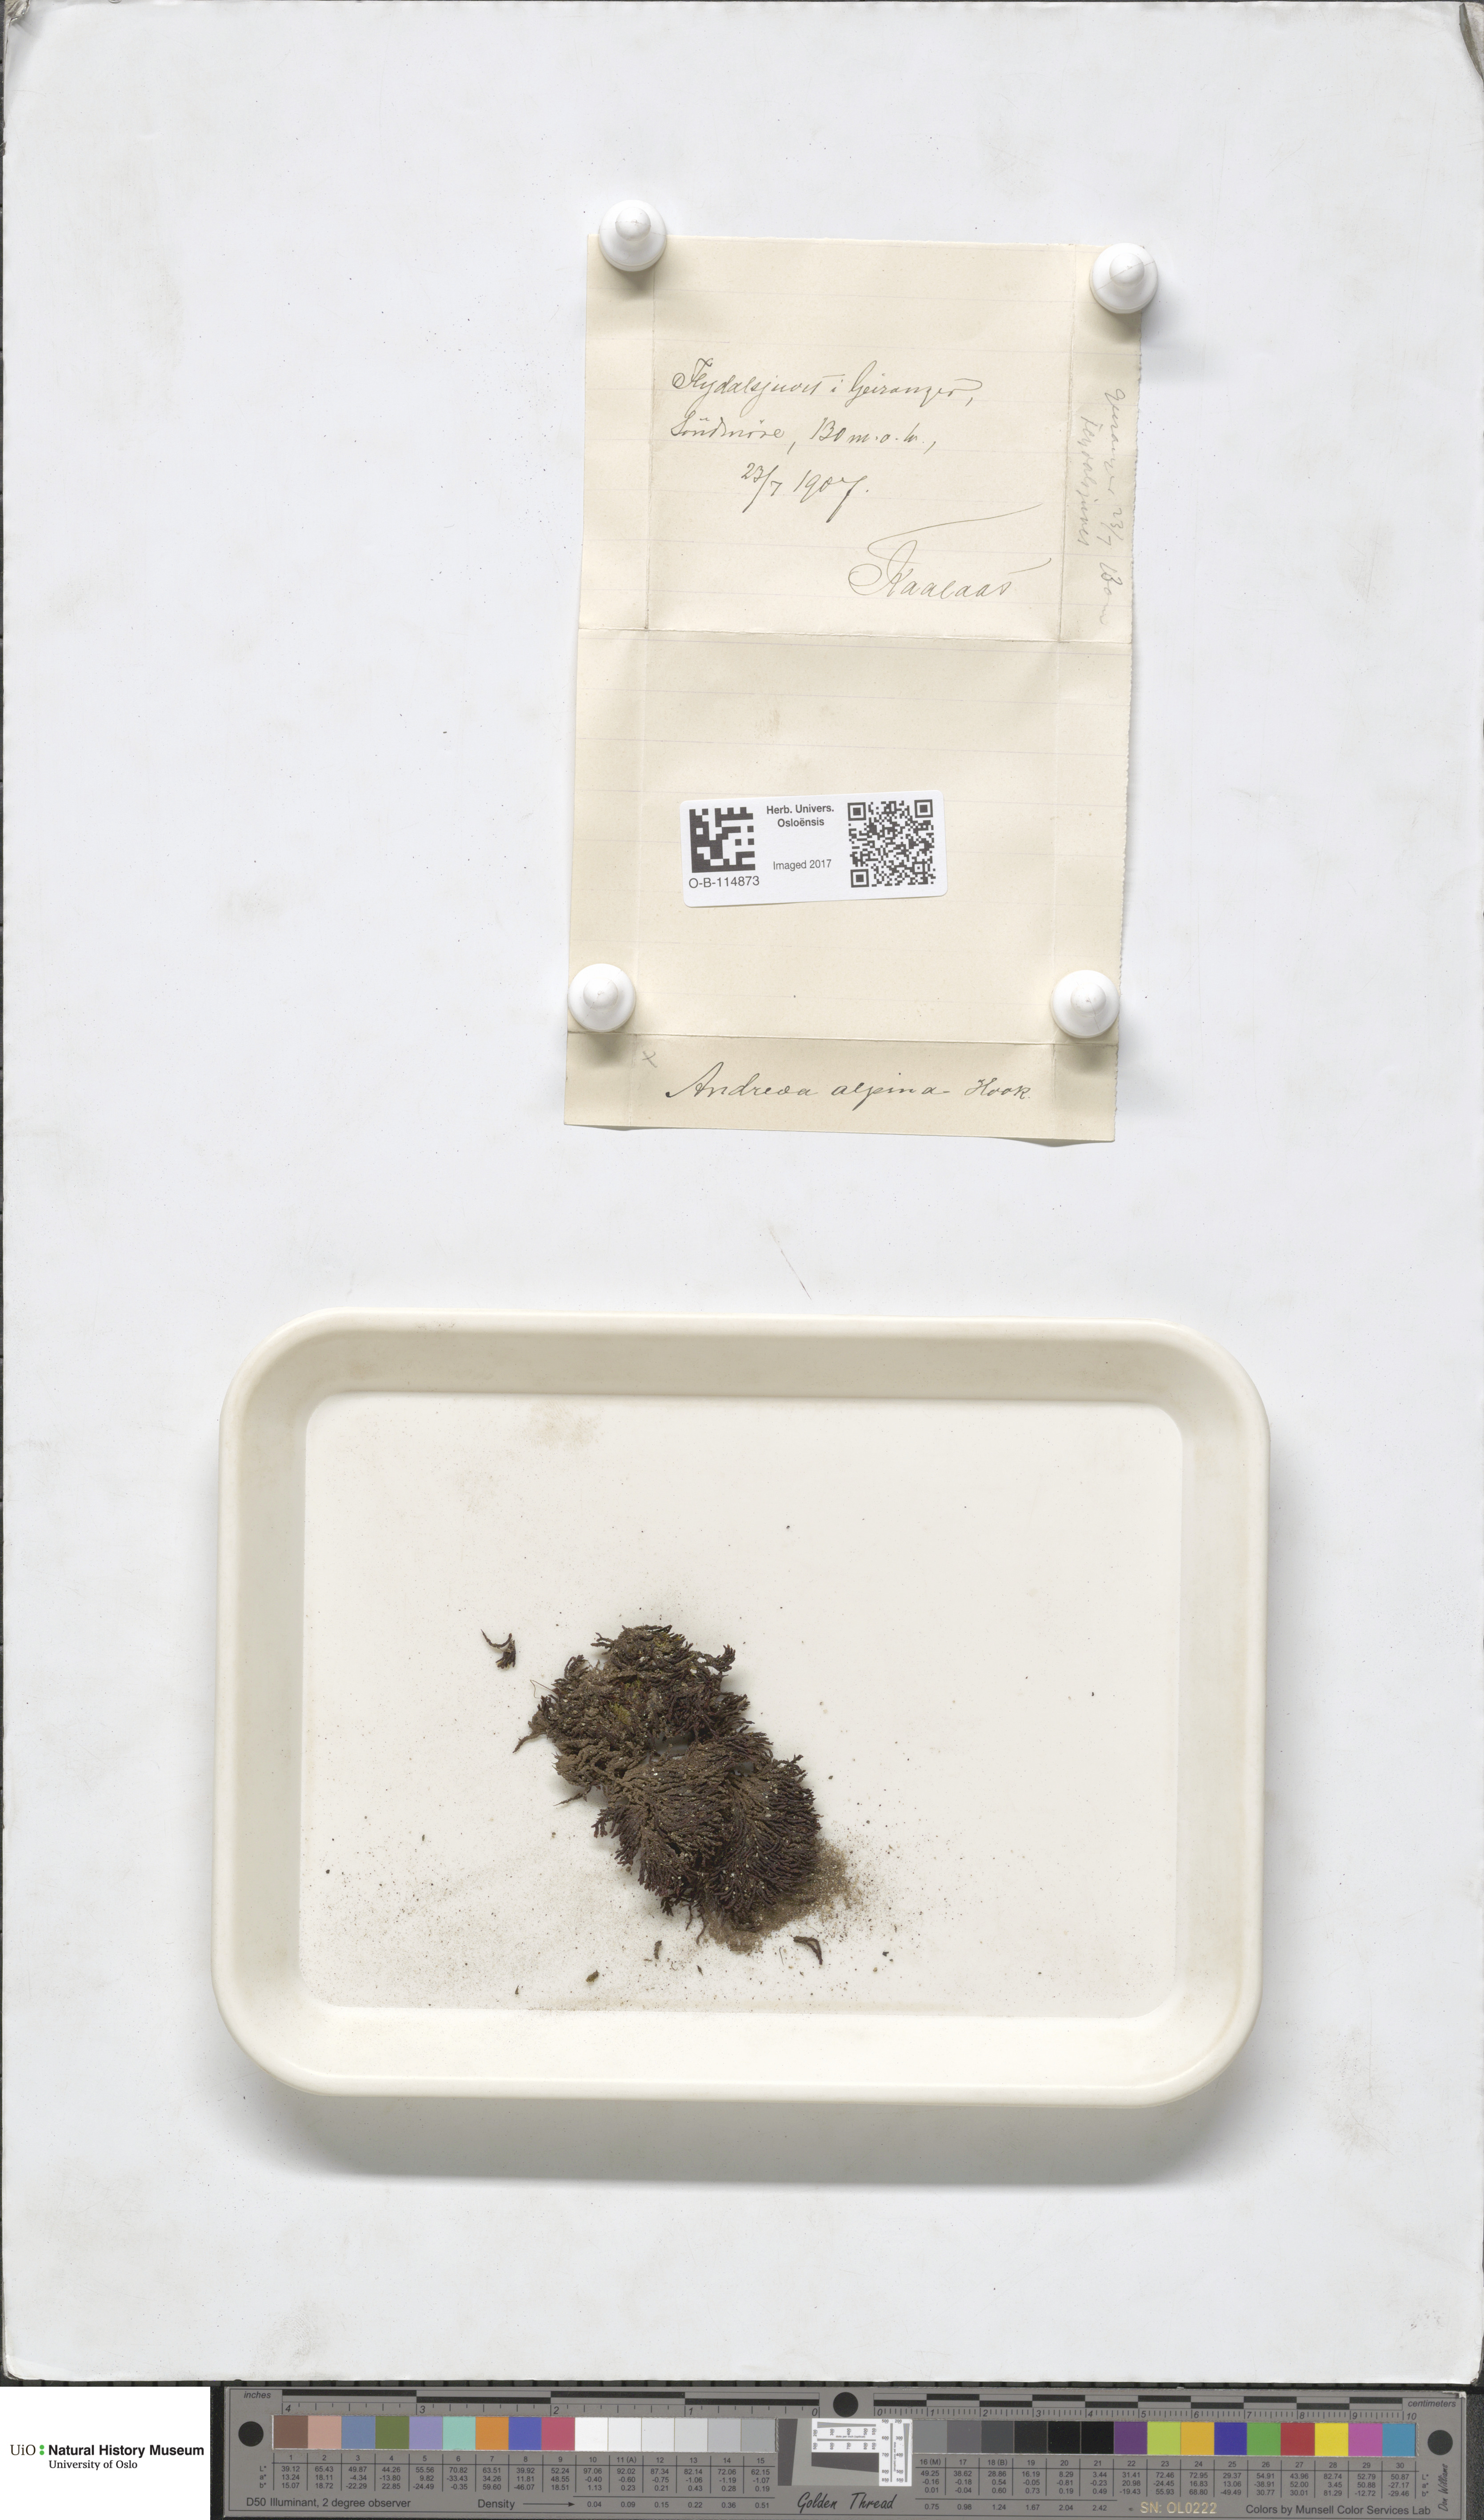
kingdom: Plantae
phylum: Bryophyta
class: Andreaeopsida
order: Andreaeales
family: Andreaeaceae
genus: Andreaea
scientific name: Andreaea hookeri
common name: Alpine rock-moss
